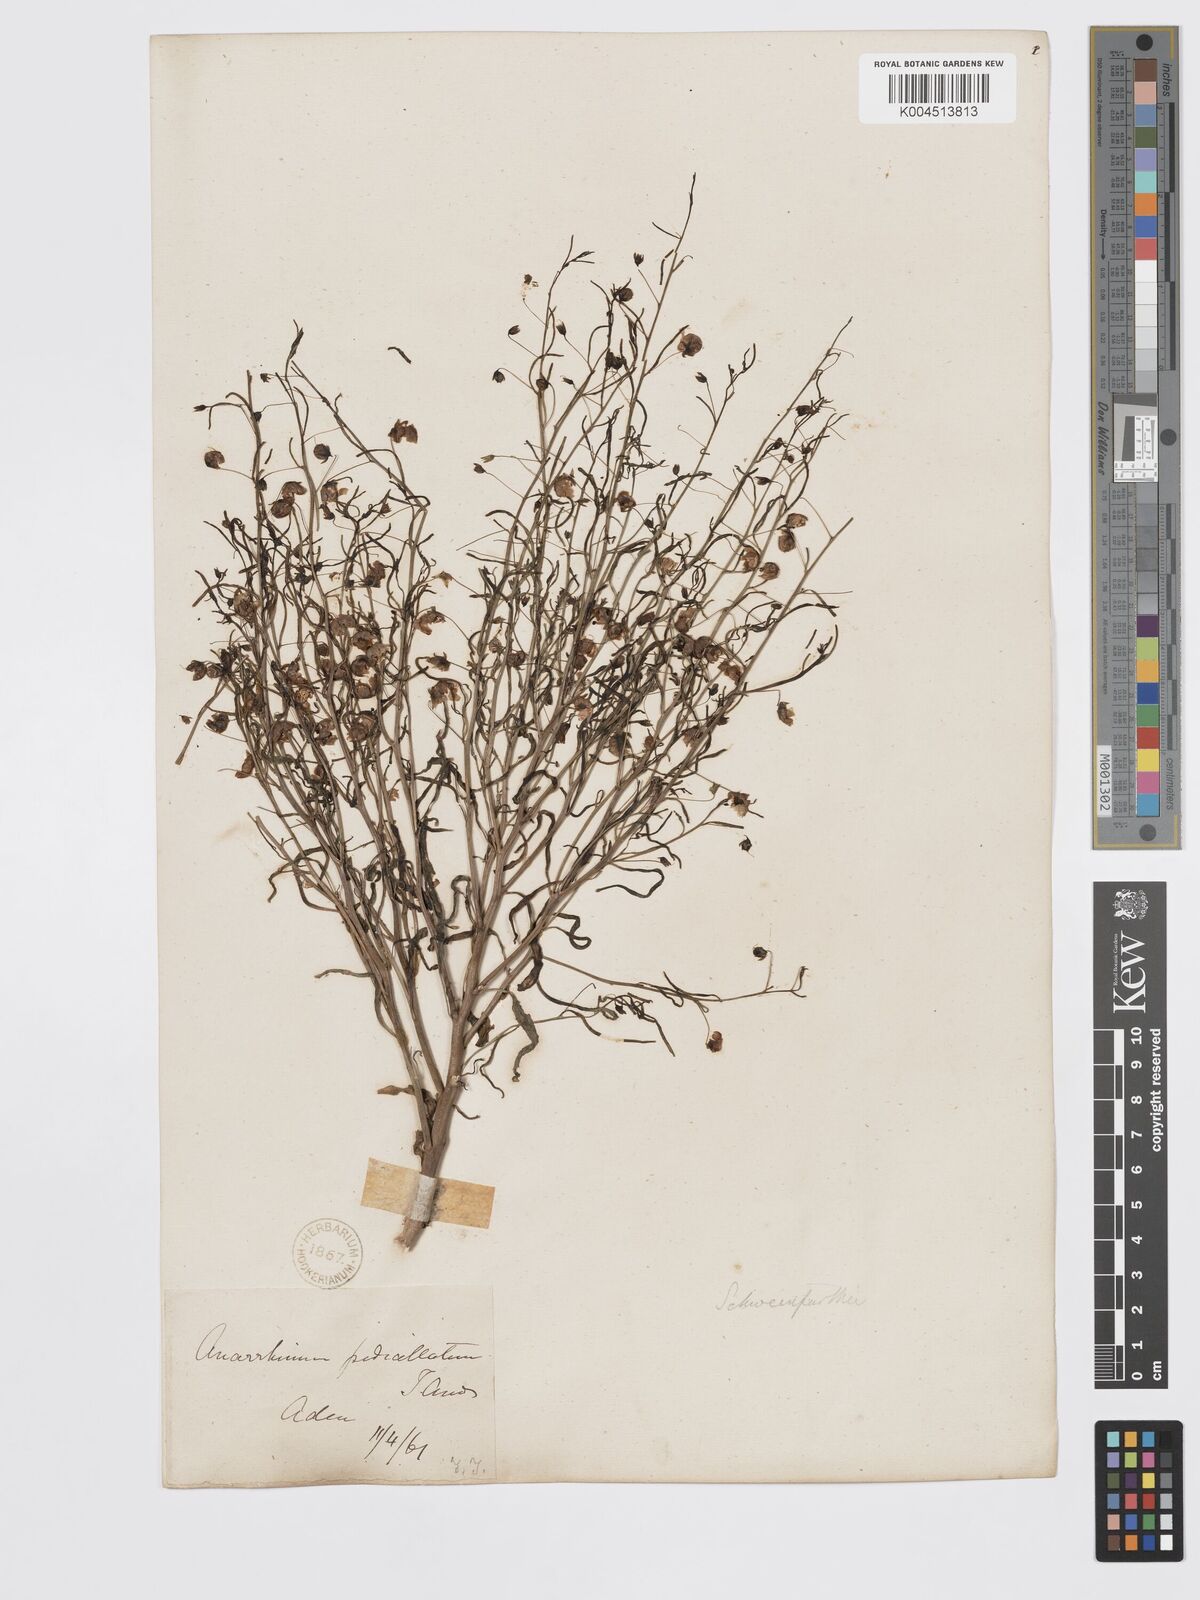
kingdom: Plantae
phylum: Tracheophyta
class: Magnoliopsida
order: Lamiales
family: Plantaginaceae
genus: Schweinfurthia
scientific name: Schweinfurthia pedicellata
